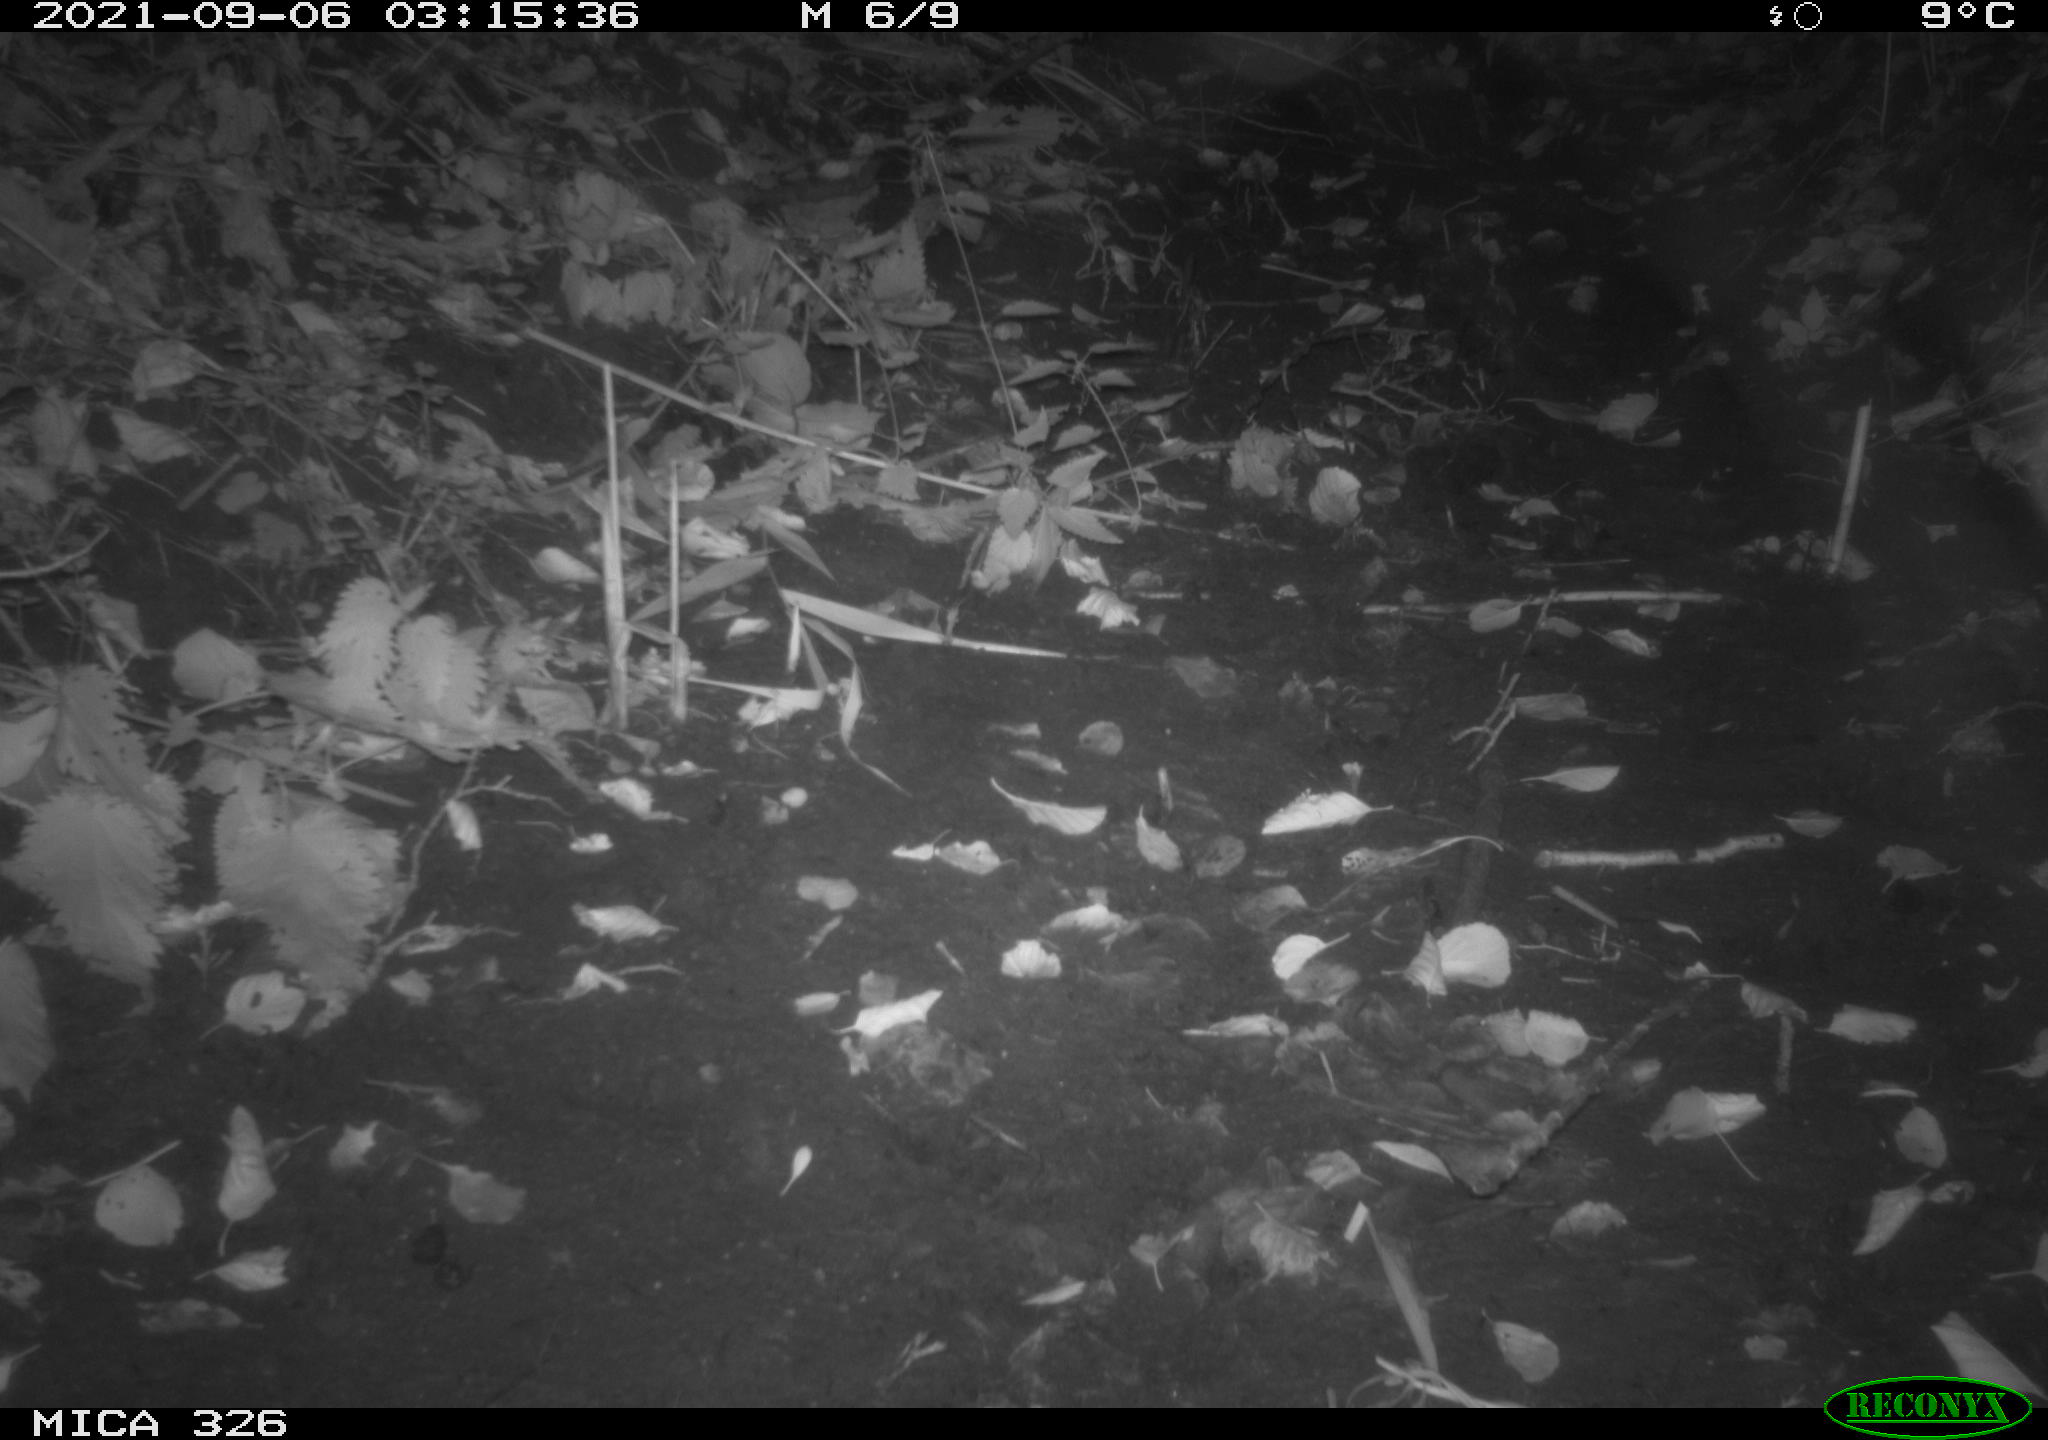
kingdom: Animalia
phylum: Chordata
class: Mammalia
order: Rodentia
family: Cricetidae
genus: Ondatra
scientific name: Ondatra zibethicus
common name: Muskrat
